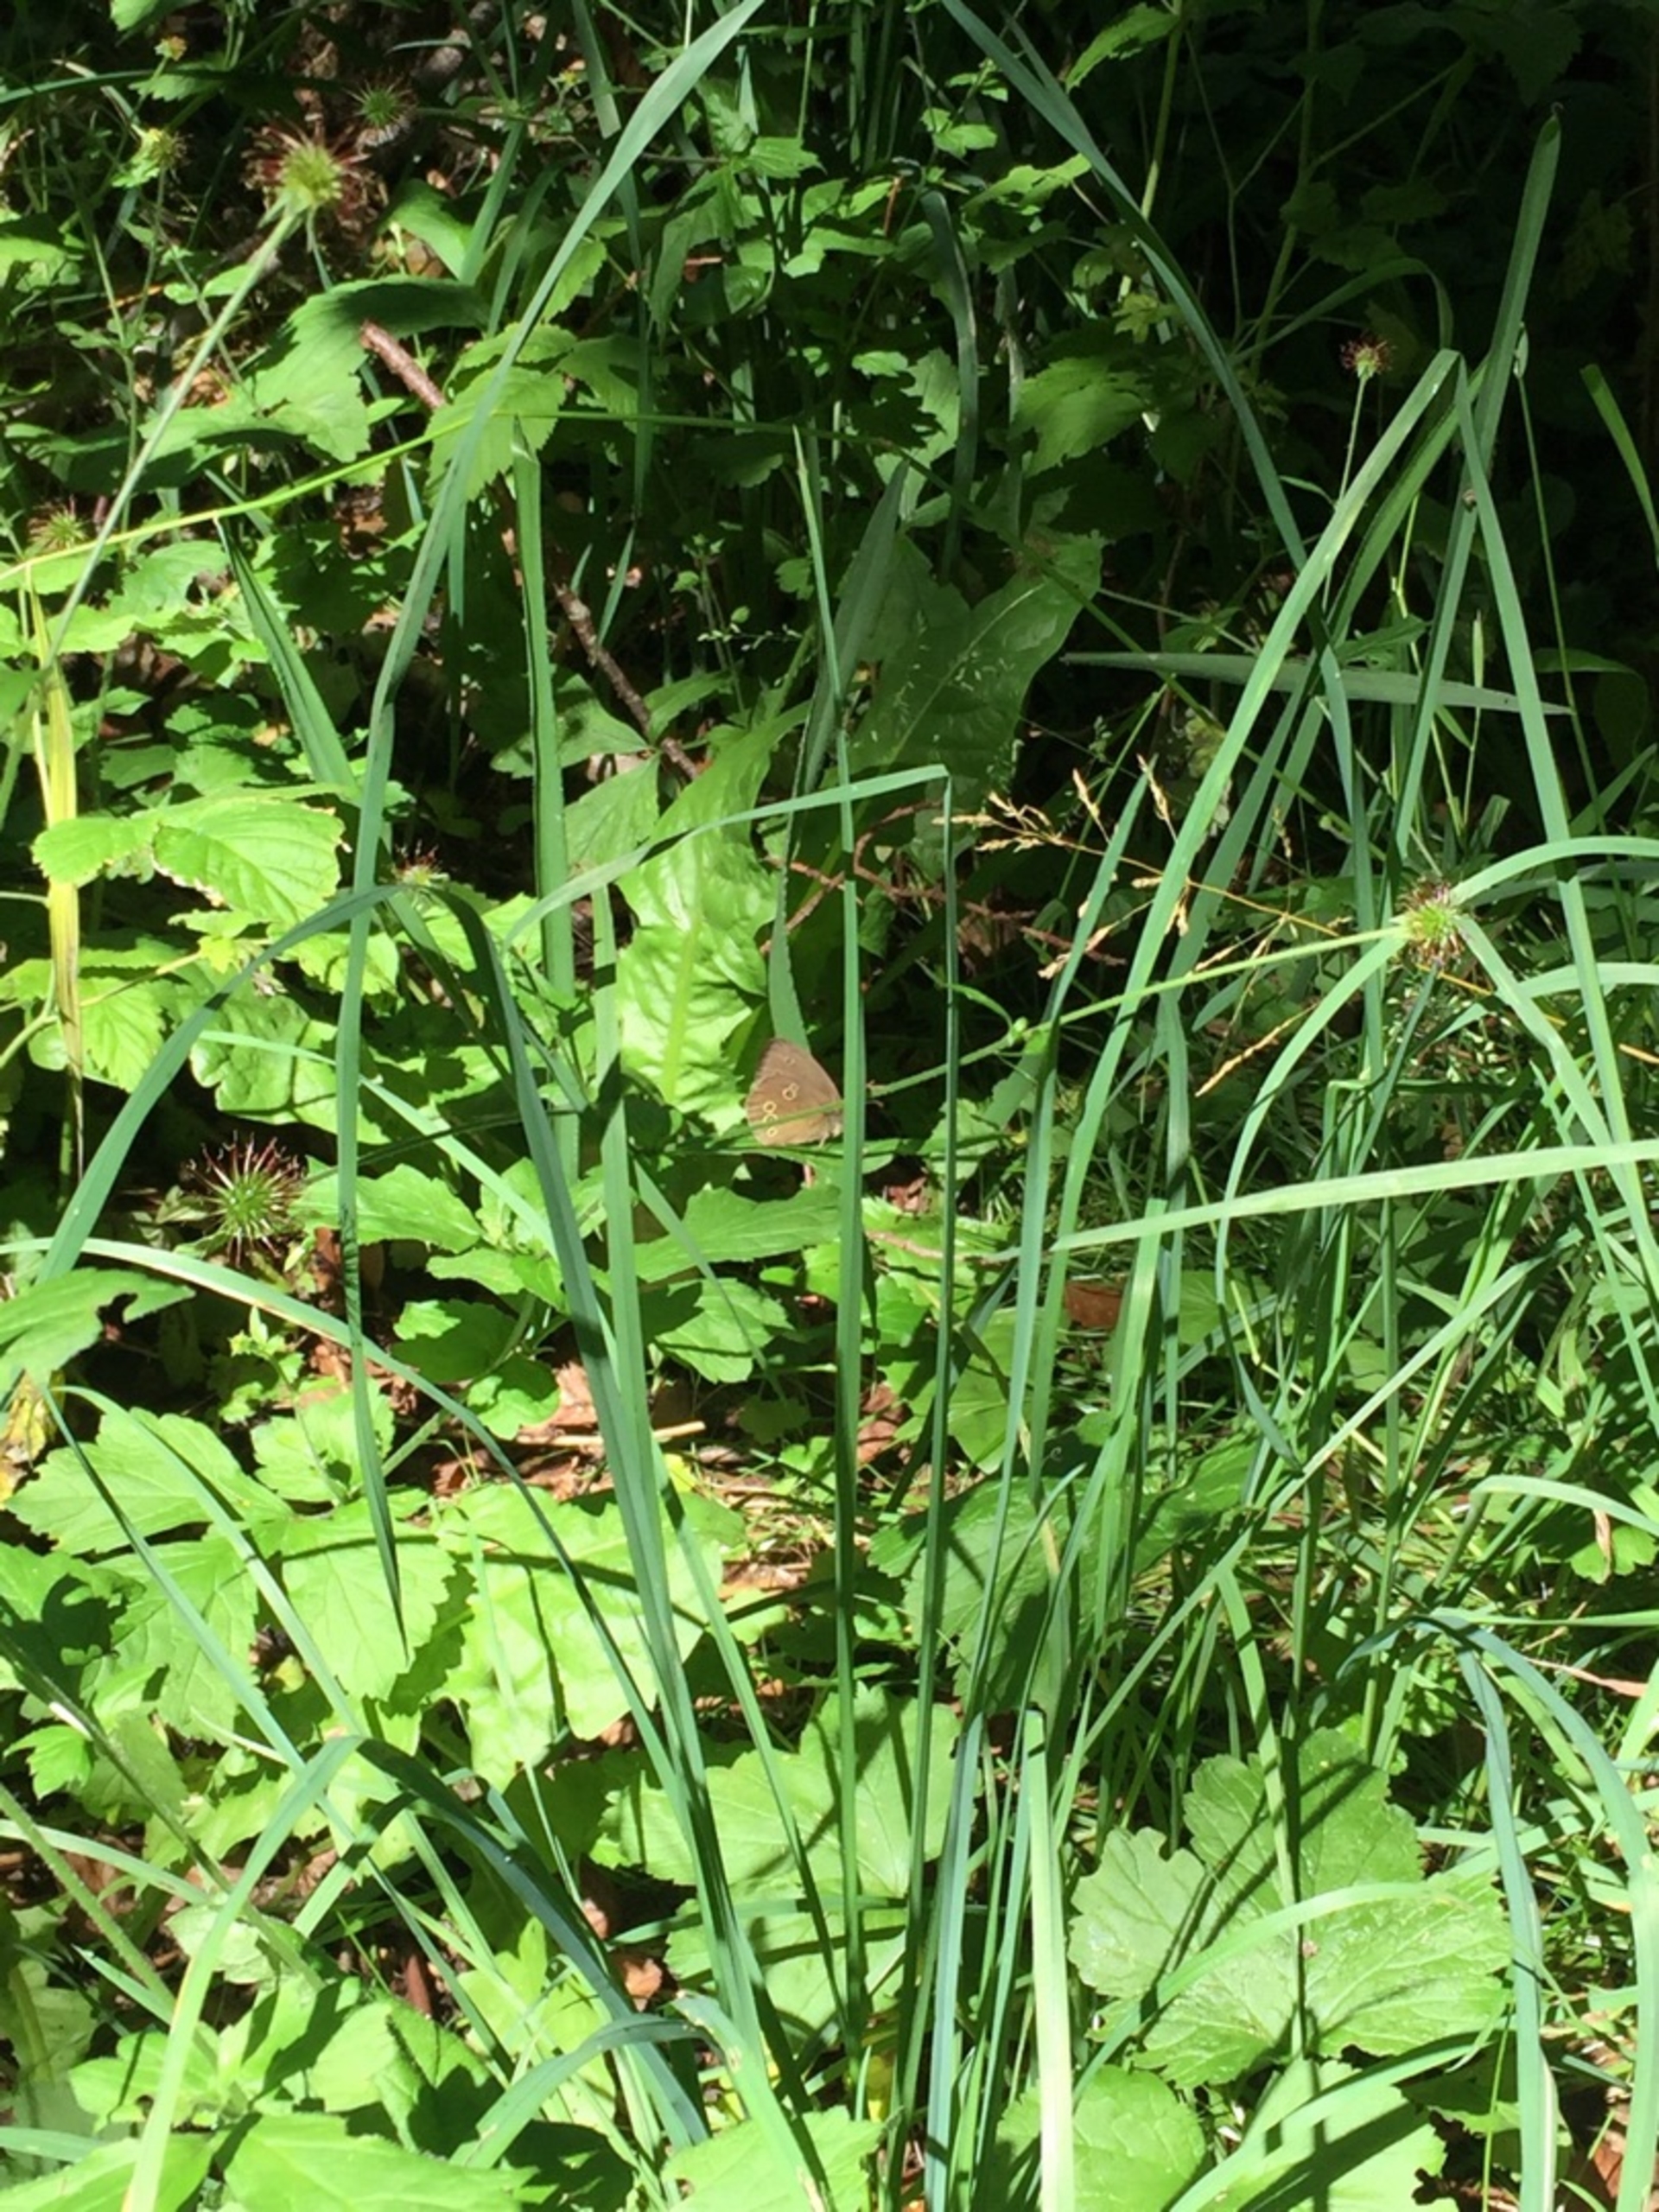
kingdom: Animalia
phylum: Arthropoda
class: Insecta
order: Lepidoptera
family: Nymphalidae
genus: Aphantopus
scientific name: Aphantopus hyperantus
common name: Engrandøje
